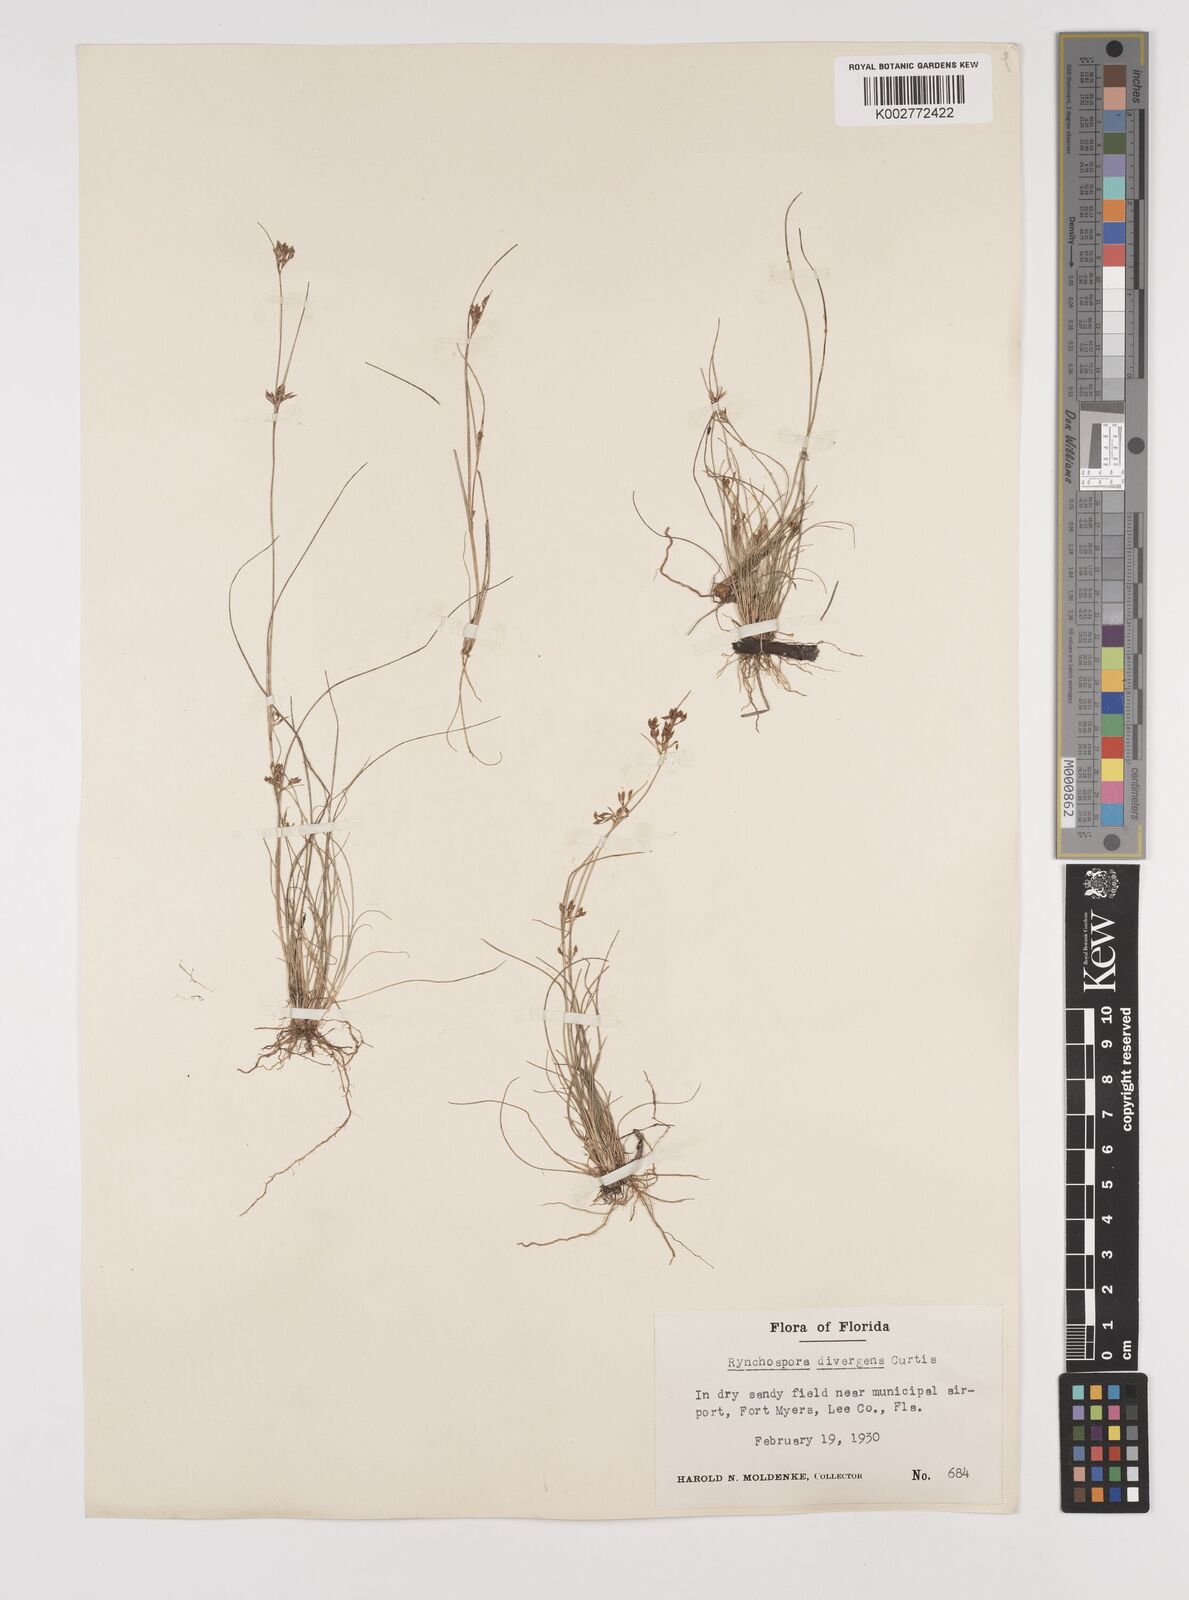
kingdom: Plantae
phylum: Tracheophyta
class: Liliopsida
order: Poales
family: Cyperaceae
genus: Rhynchospora
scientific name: Rhynchospora divergens
